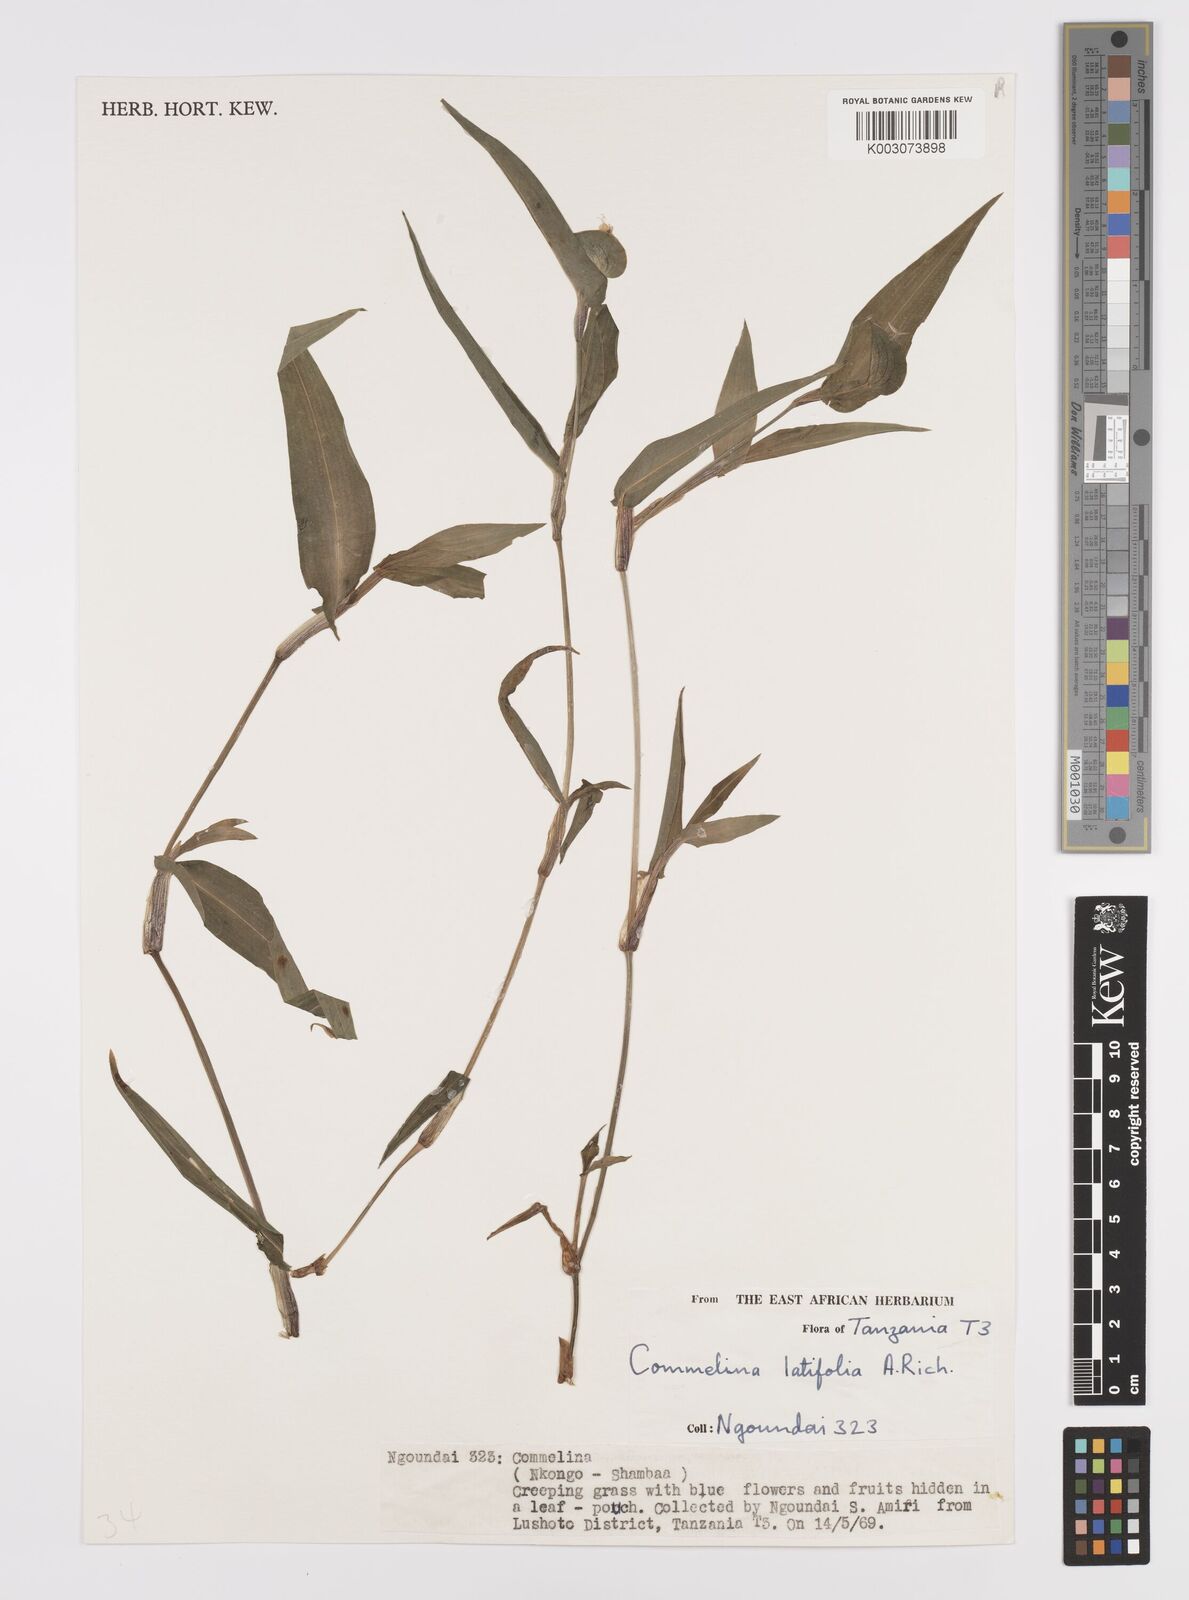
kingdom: Plantae
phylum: Tracheophyta
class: Liliopsida
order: Commelinales
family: Commelinaceae
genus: Commelina
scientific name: Commelina latifolia
